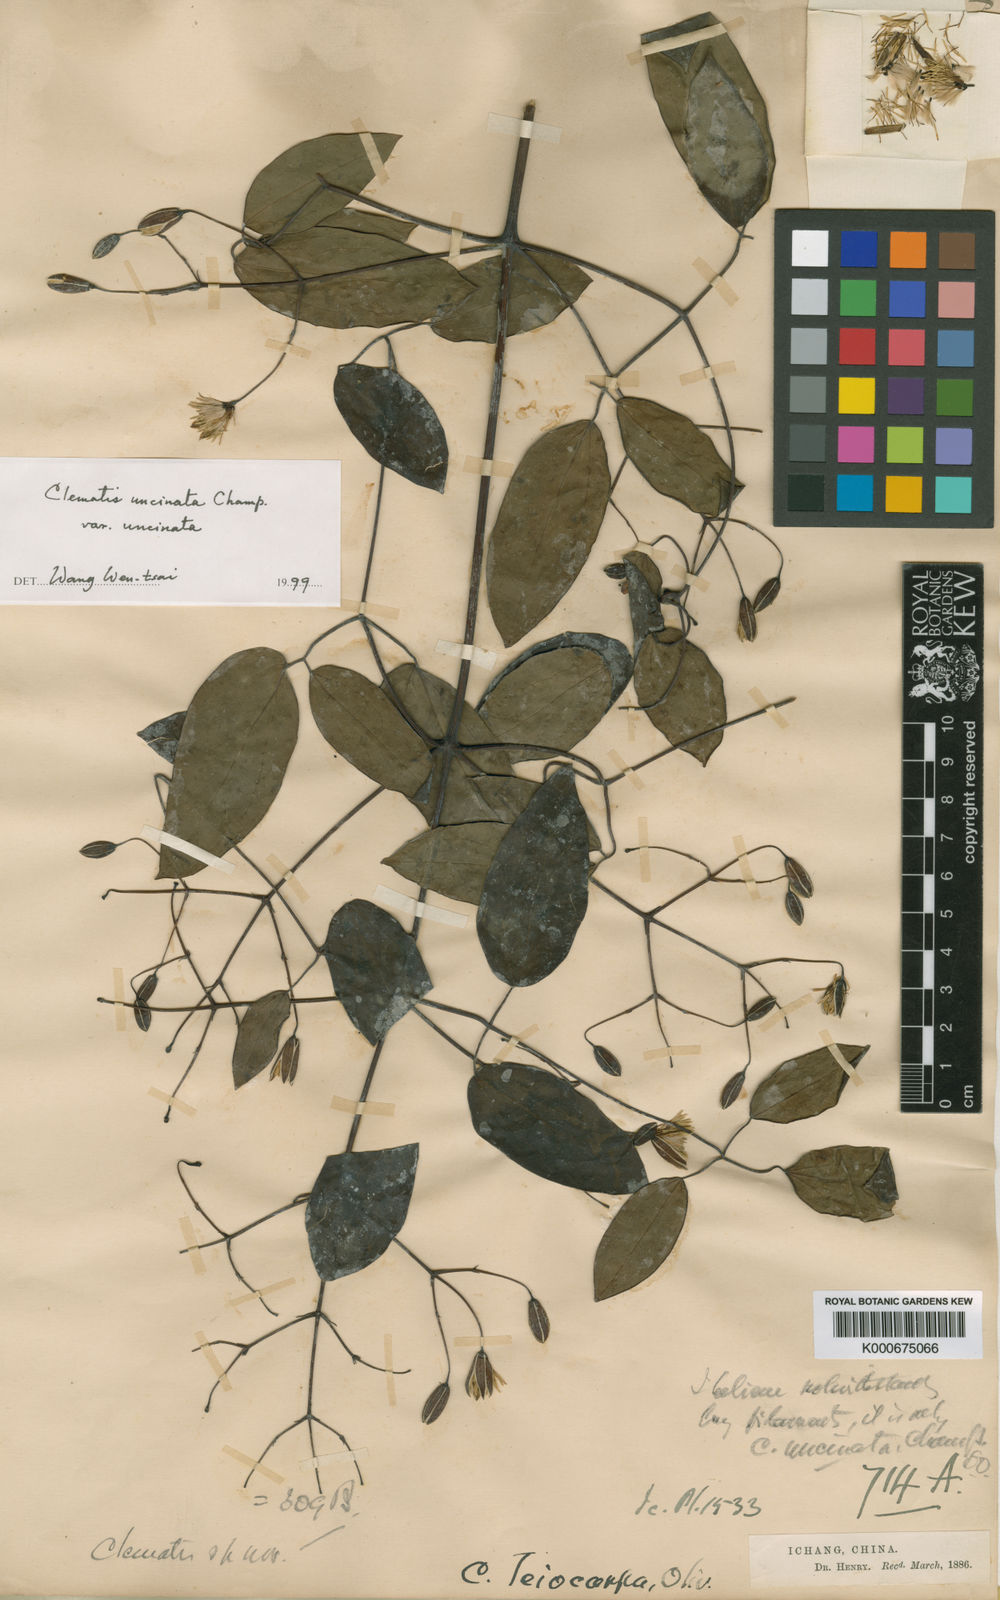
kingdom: Plantae
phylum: Tracheophyta
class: Magnoliopsida
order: Ranunculales
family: Ranunculaceae
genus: Clematis
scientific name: Clematis uncinata
